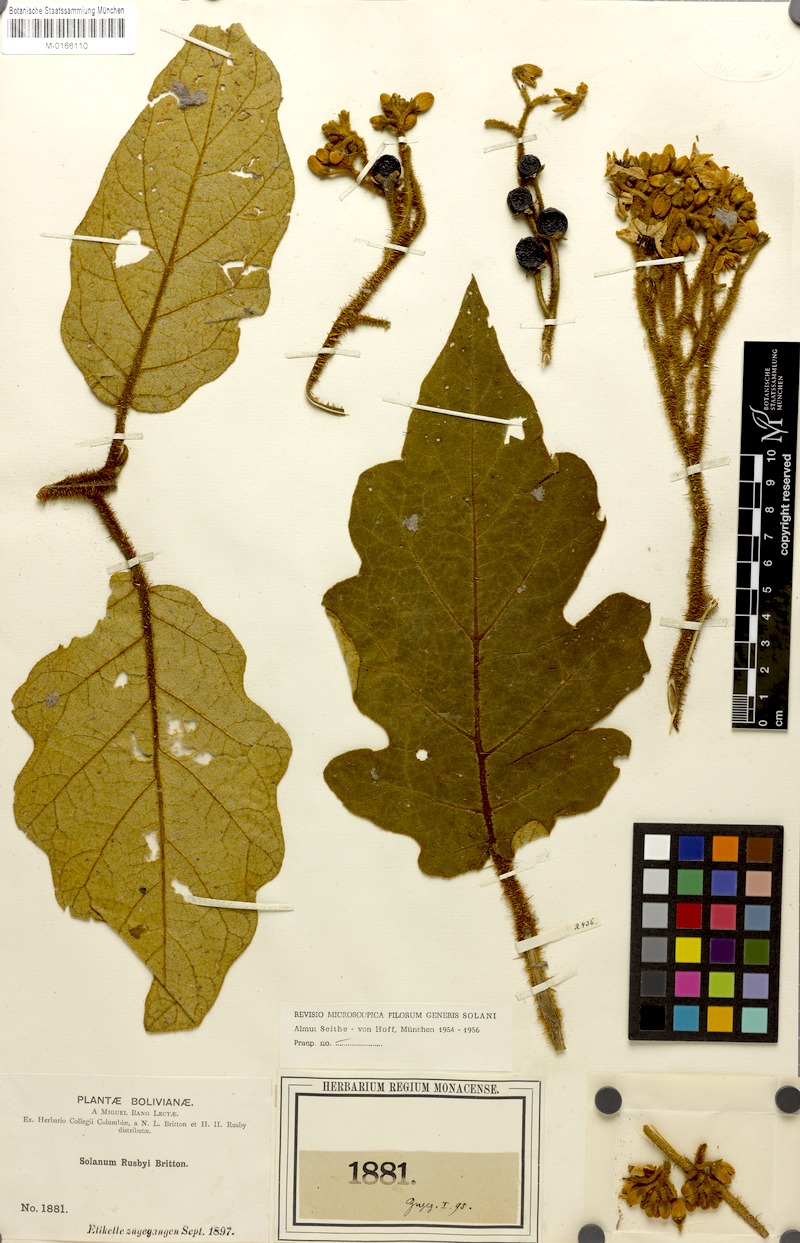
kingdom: Plantae
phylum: Tracheophyta
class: Magnoliopsida
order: Solanales
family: Solanaceae
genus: Solanum
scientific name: Solanum asperolanatum
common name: Devil's-fig
